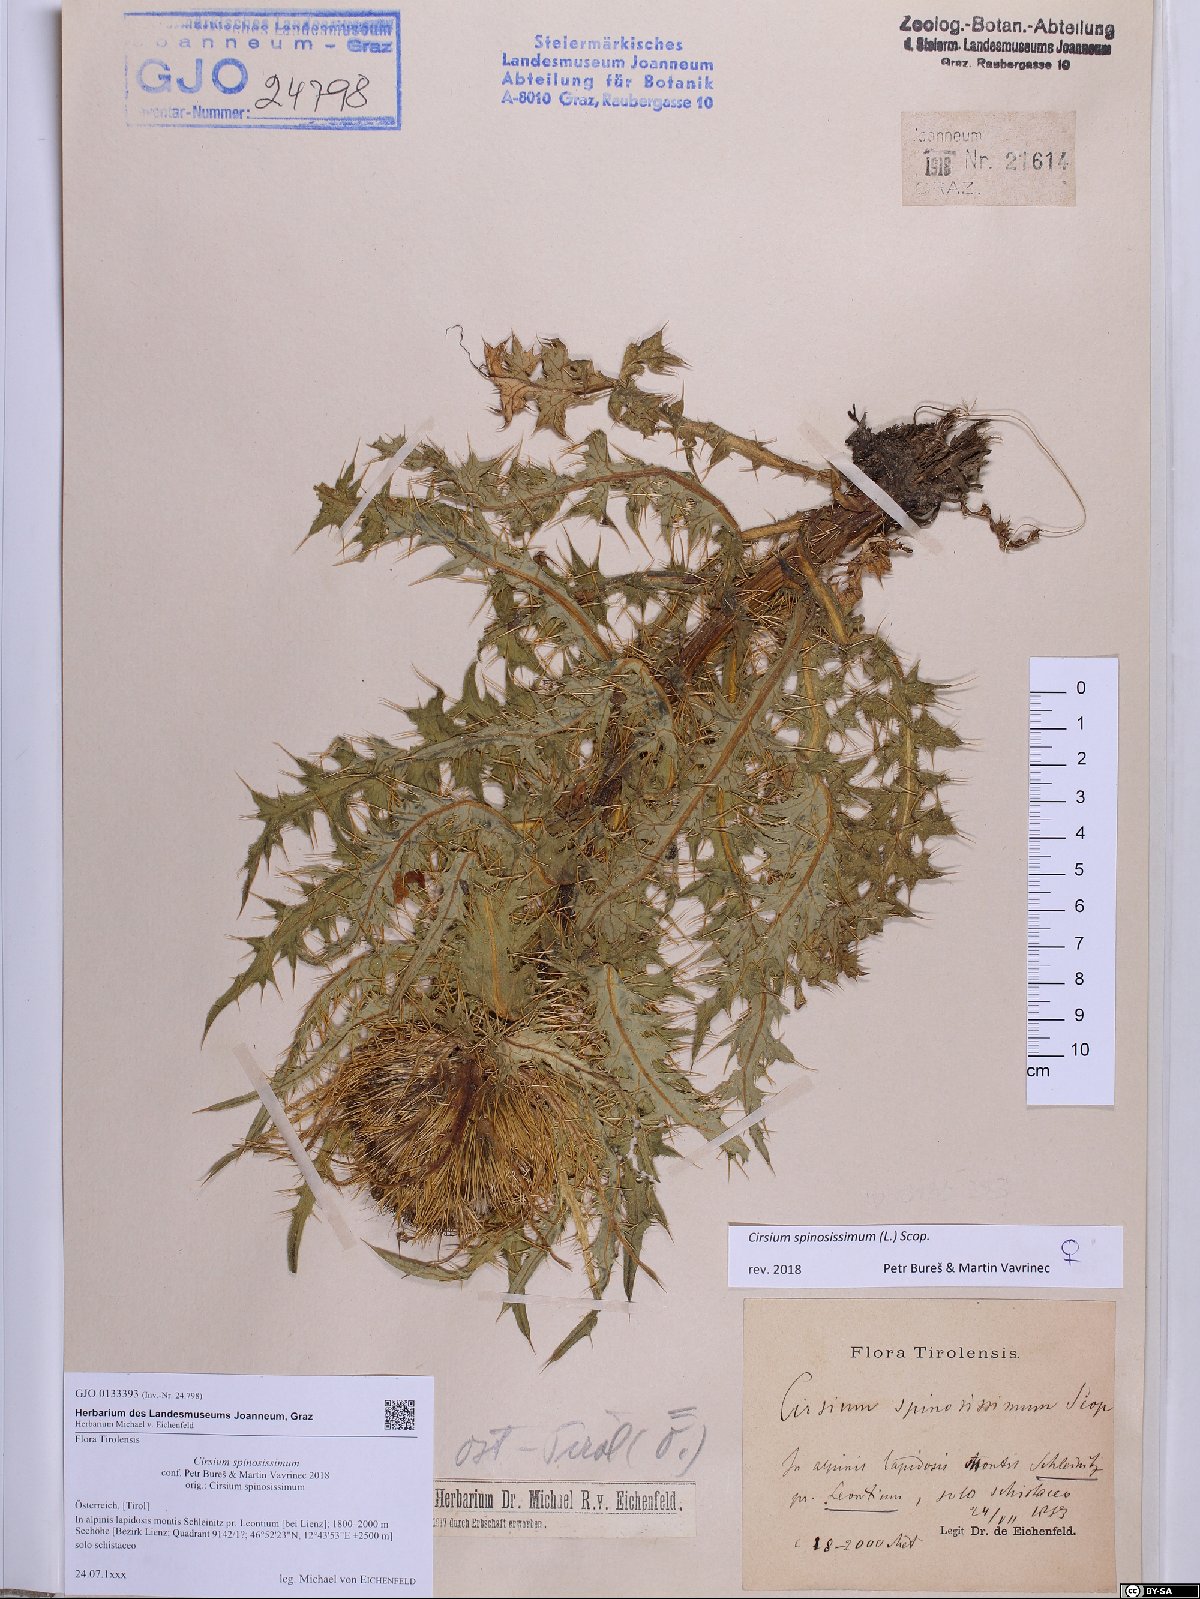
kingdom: Plantae
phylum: Tracheophyta
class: Magnoliopsida
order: Asterales
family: Asteraceae
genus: Cirsium
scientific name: Cirsium spinosissimum
